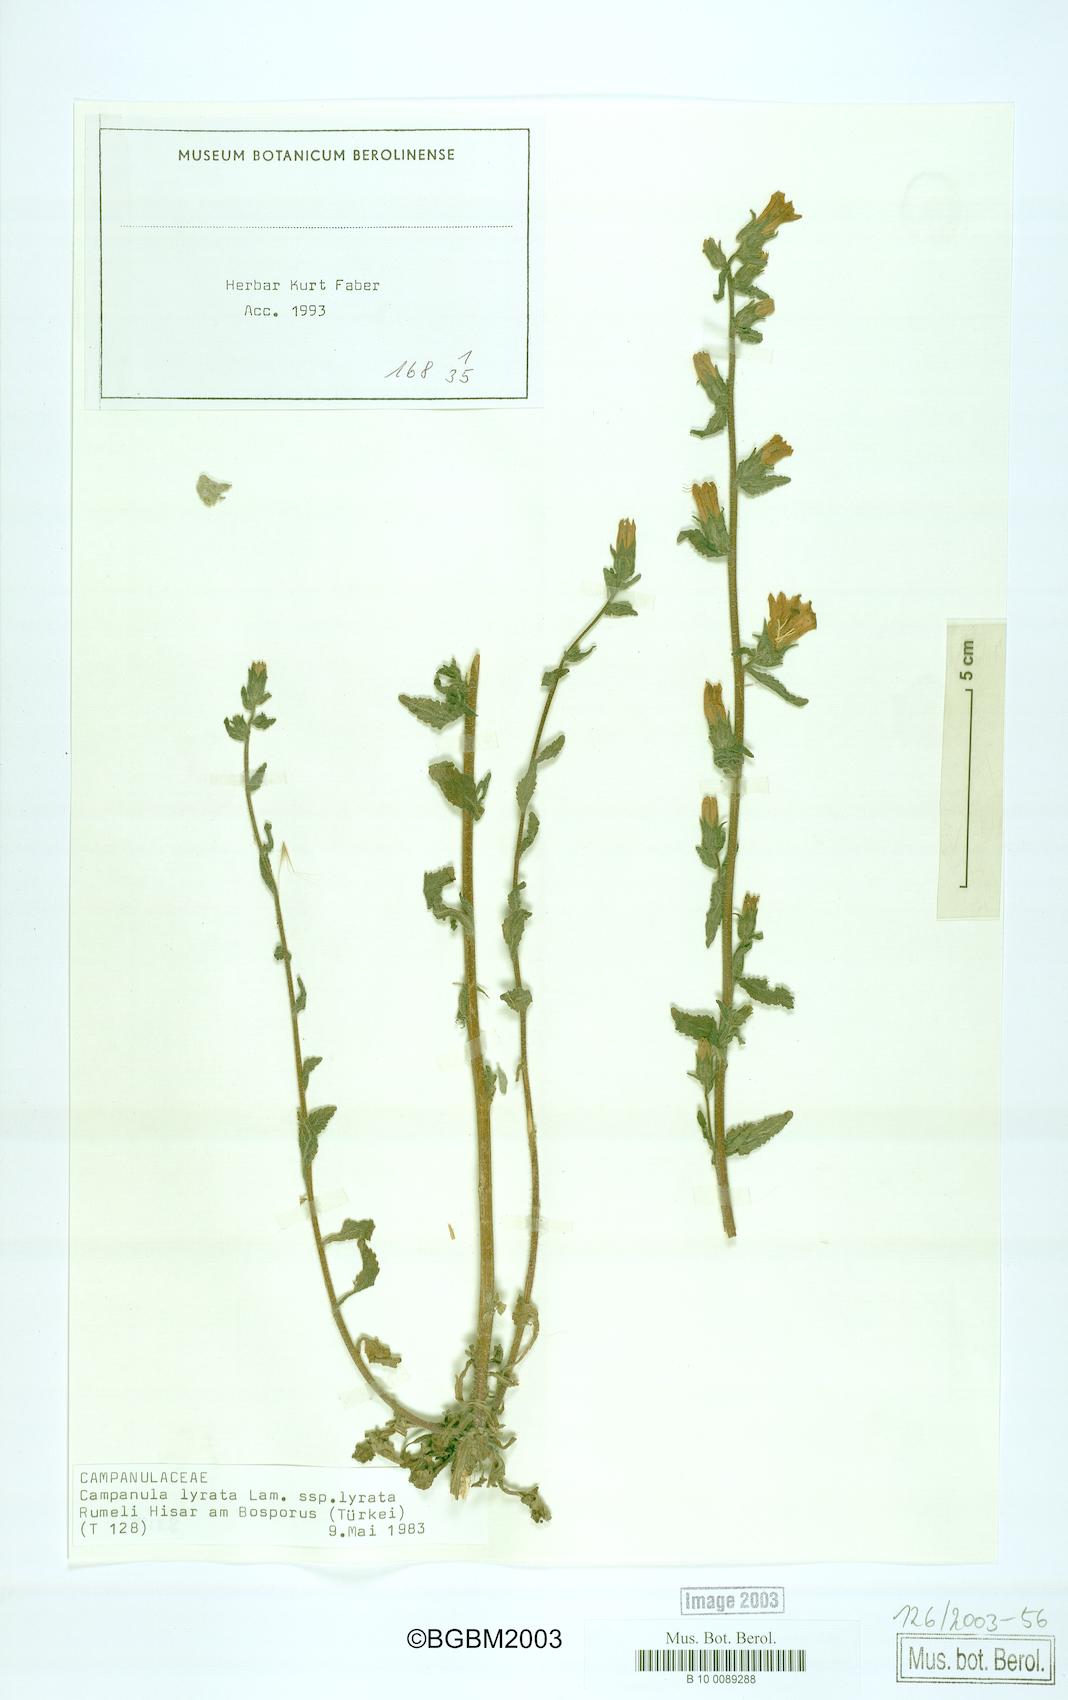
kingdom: Plantae
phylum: Tracheophyta
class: Magnoliopsida
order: Asterales
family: Campanulaceae
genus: Campanula
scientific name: Campanula lyrata
